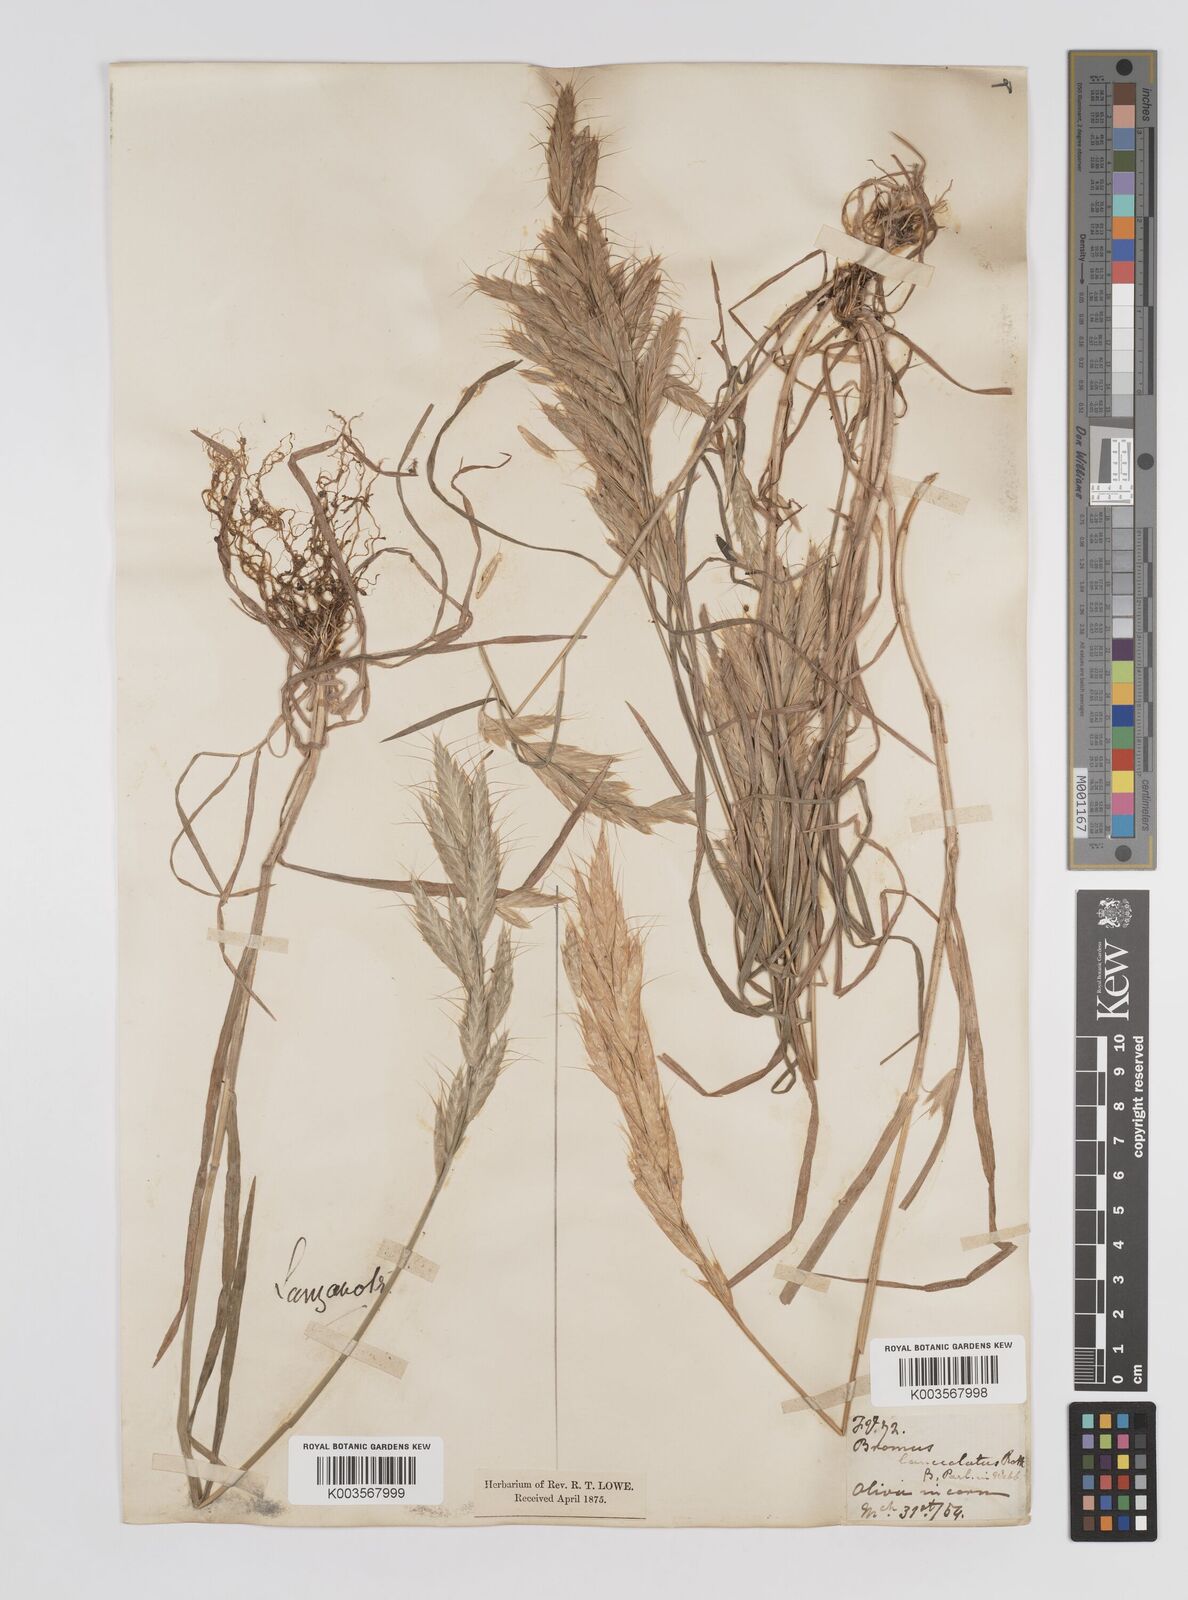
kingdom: Plantae
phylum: Tracheophyta
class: Liliopsida
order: Poales
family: Poaceae
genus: Bromus
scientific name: Bromus lanceolatus
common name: Mediterranean brome
